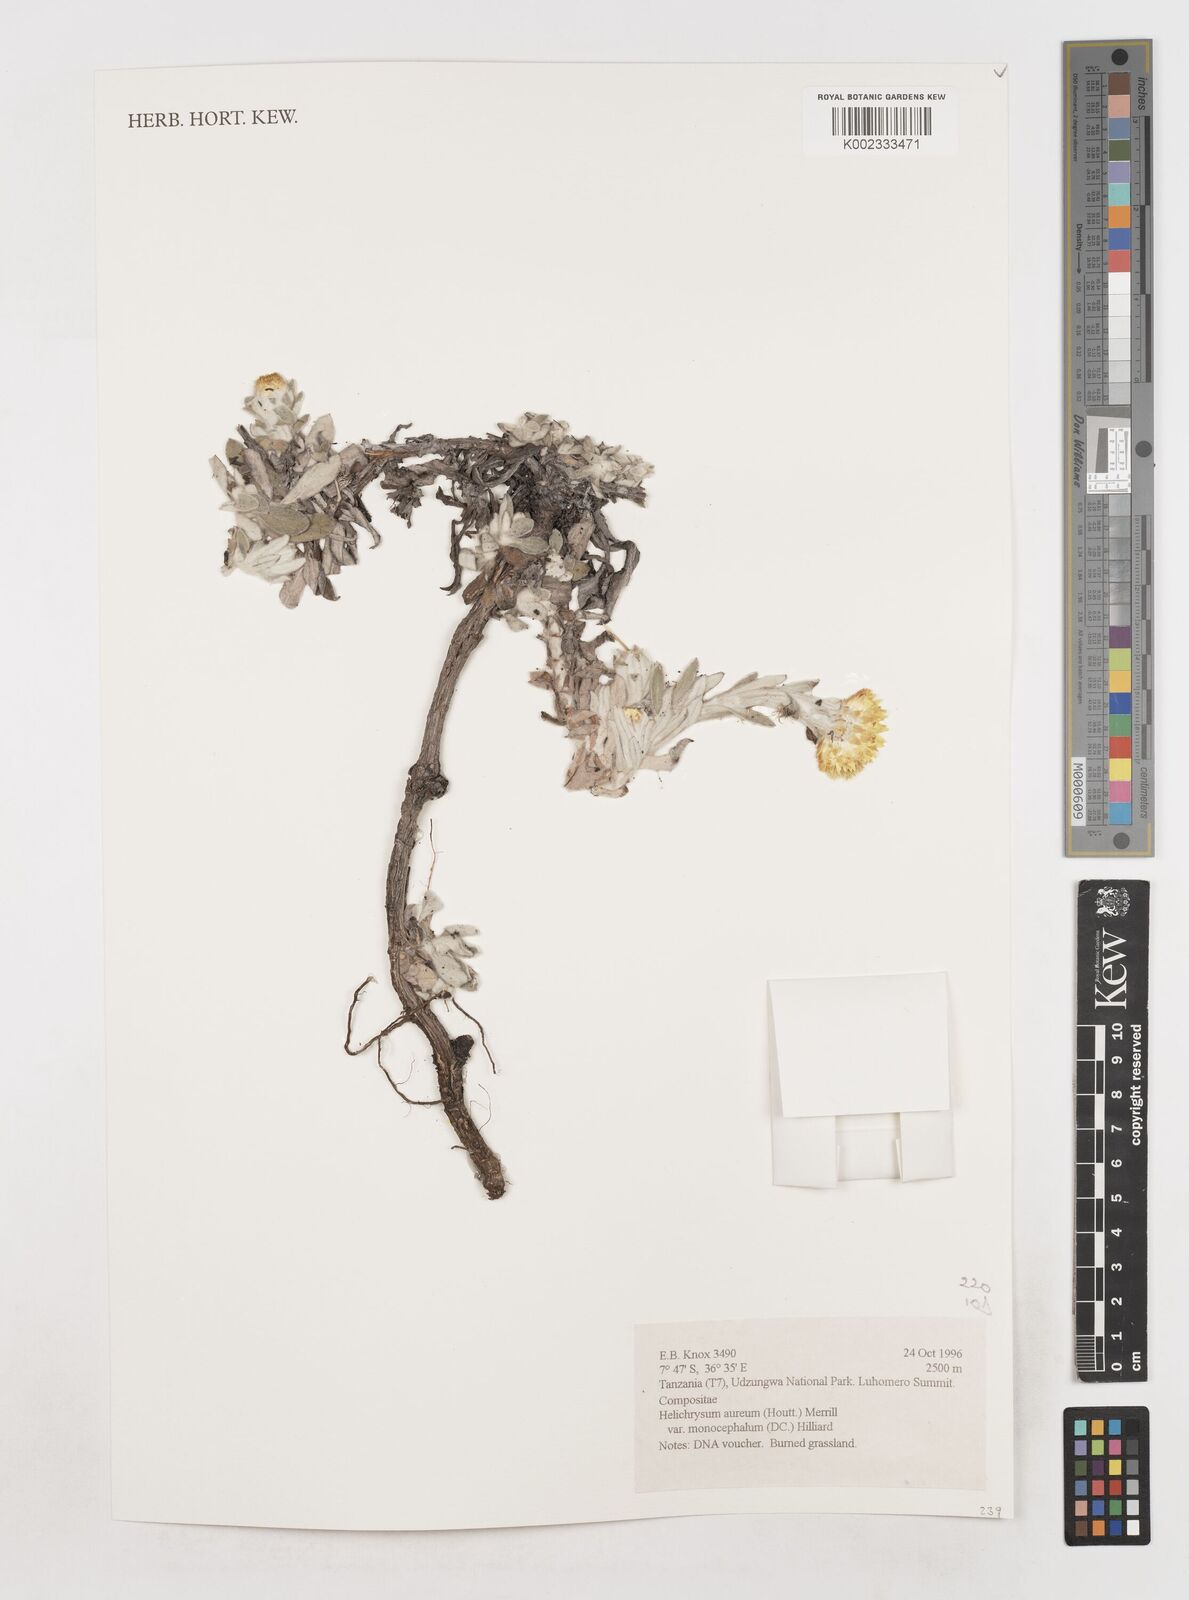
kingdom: Plantae
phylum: Tracheophyta
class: Magnoliopsida
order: Asterales
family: Asteraceae
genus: Helichrysum
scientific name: Helichrysum aureum
